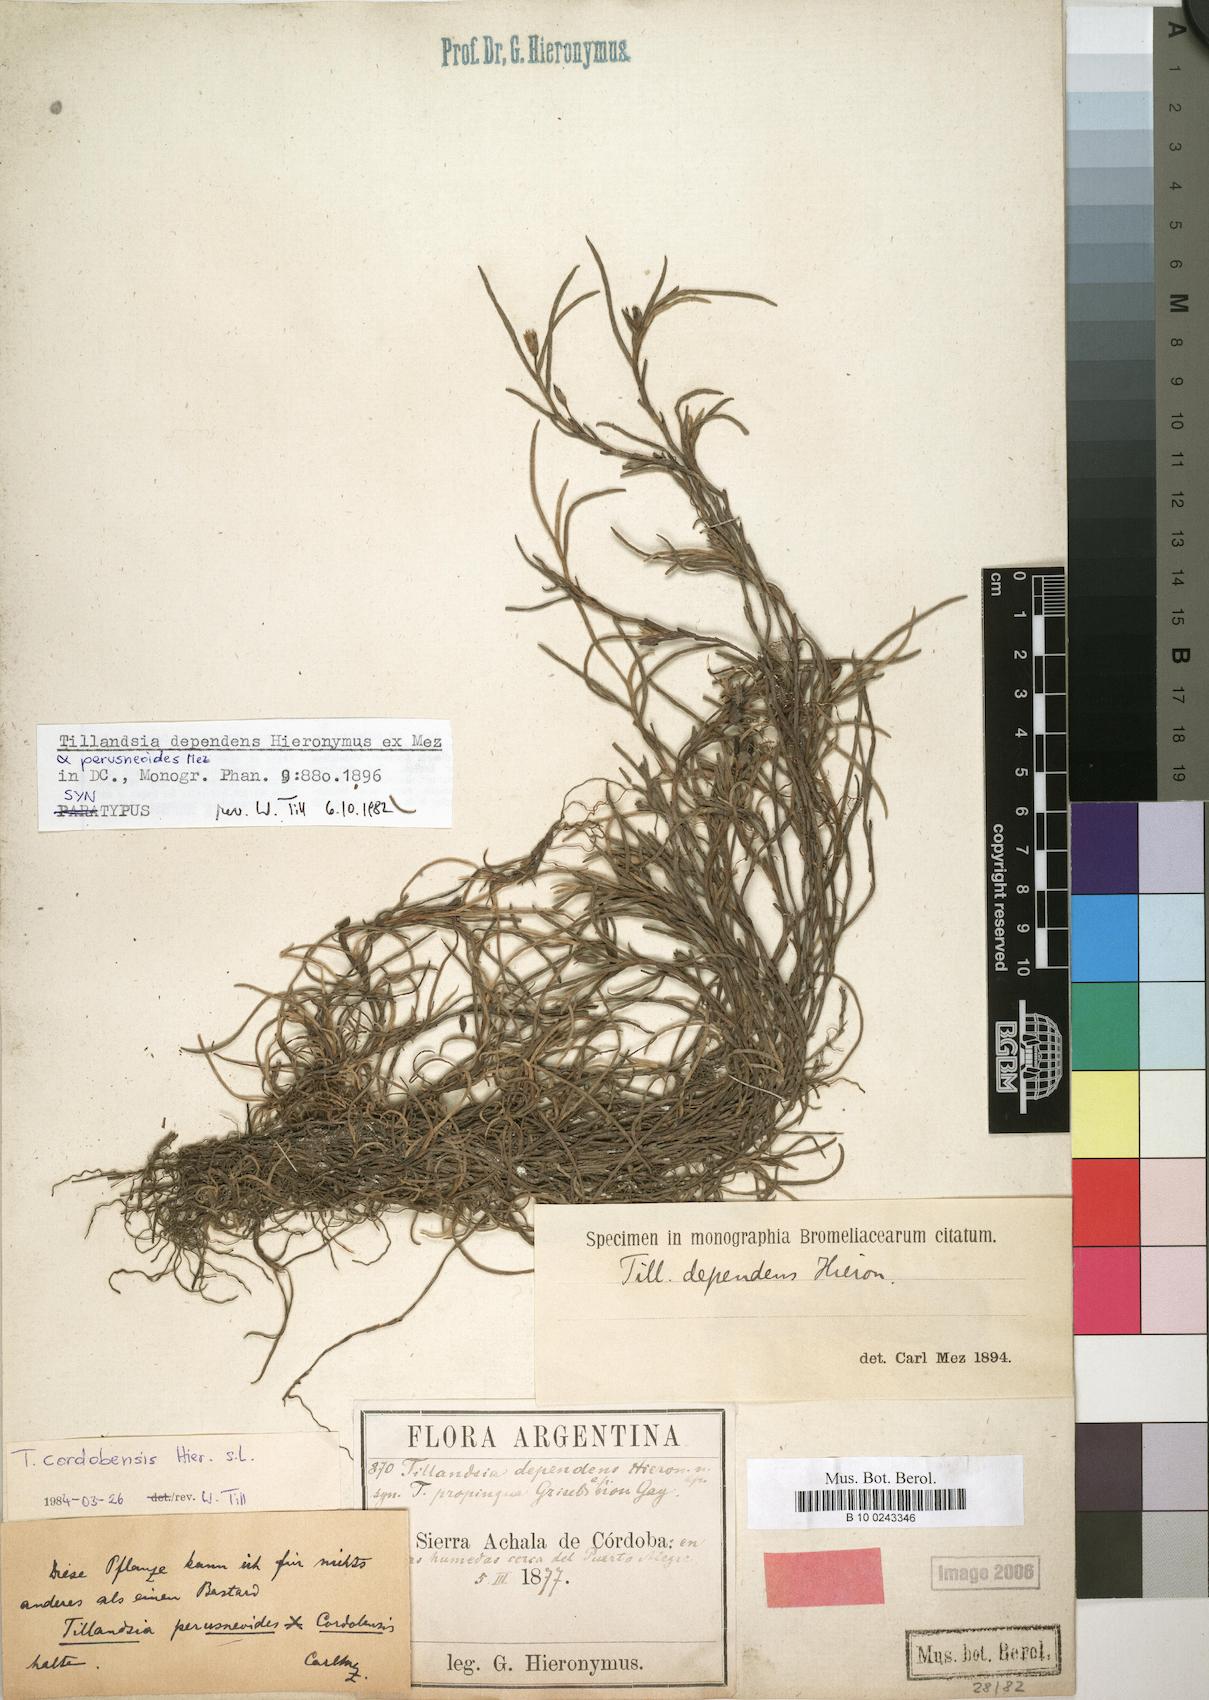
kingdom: Plantae
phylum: Tracheophyta
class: Liliopsida
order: Poales
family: Bromeliaceae
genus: Tillandsia
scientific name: Tillandsia virescens
